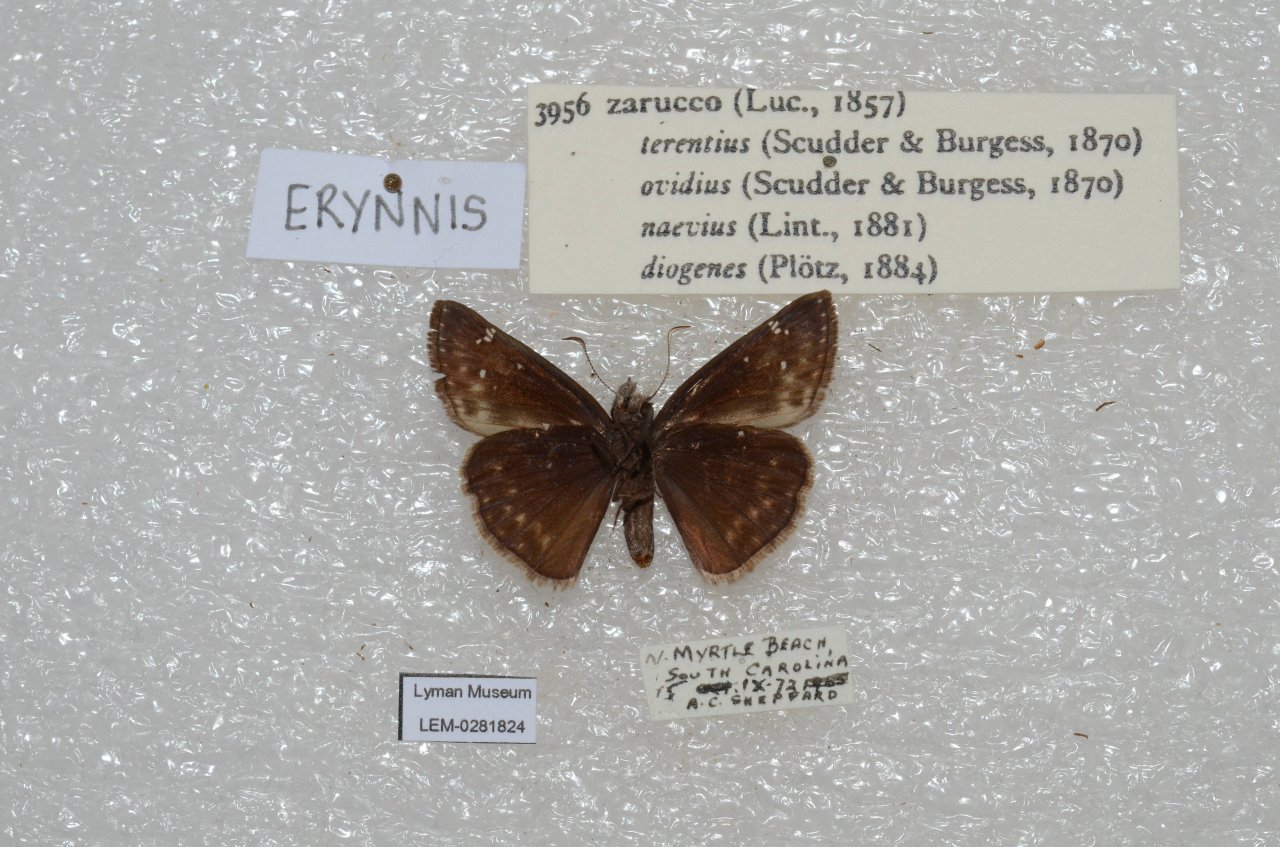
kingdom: Animalia
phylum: Arthropoda
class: Insecta
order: Lepidoptera
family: Hesperiidae
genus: Erynnis
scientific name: Erynnis zarucco
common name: Zarucco Duskywing
